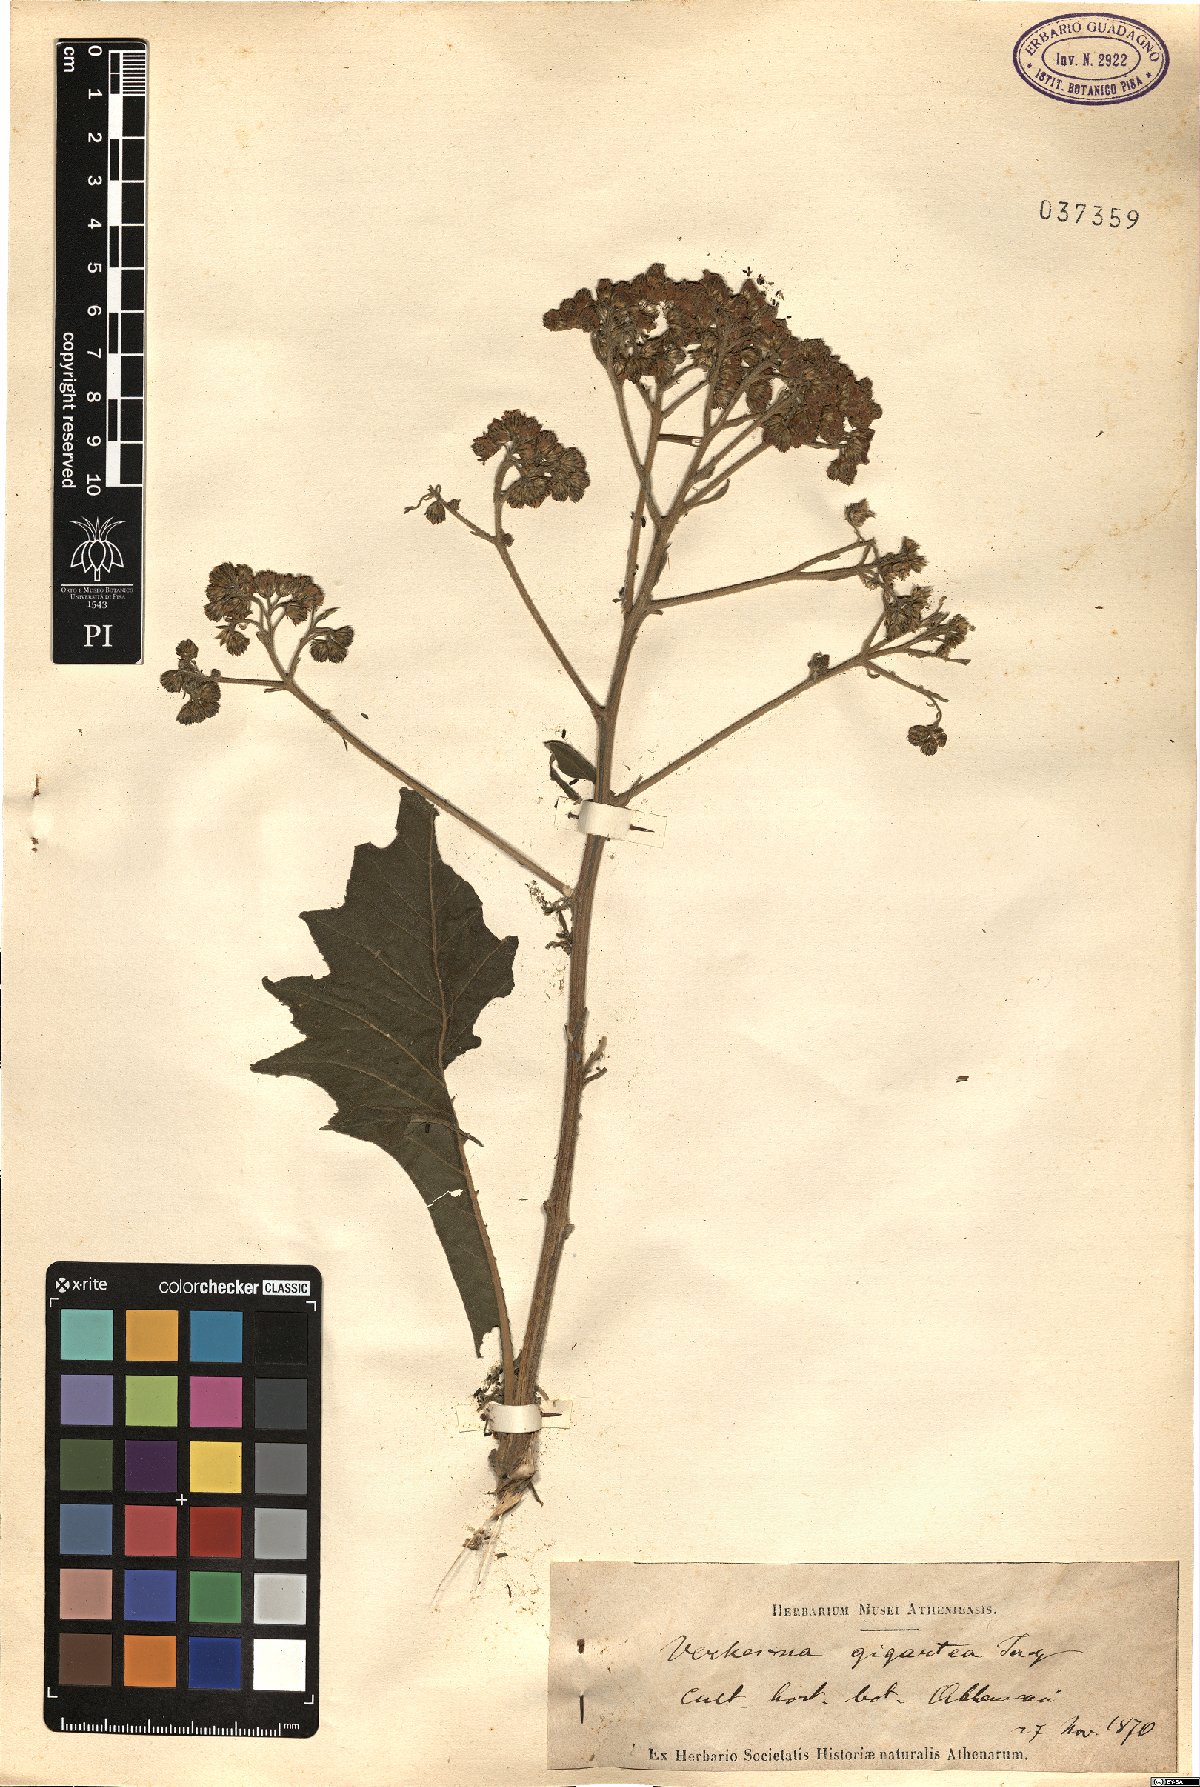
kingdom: Plantae
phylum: Tracheophyta
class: Magnoliopsida
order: Asterales
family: Asteraceae
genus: Verbesina
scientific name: Verbesina gigantea
